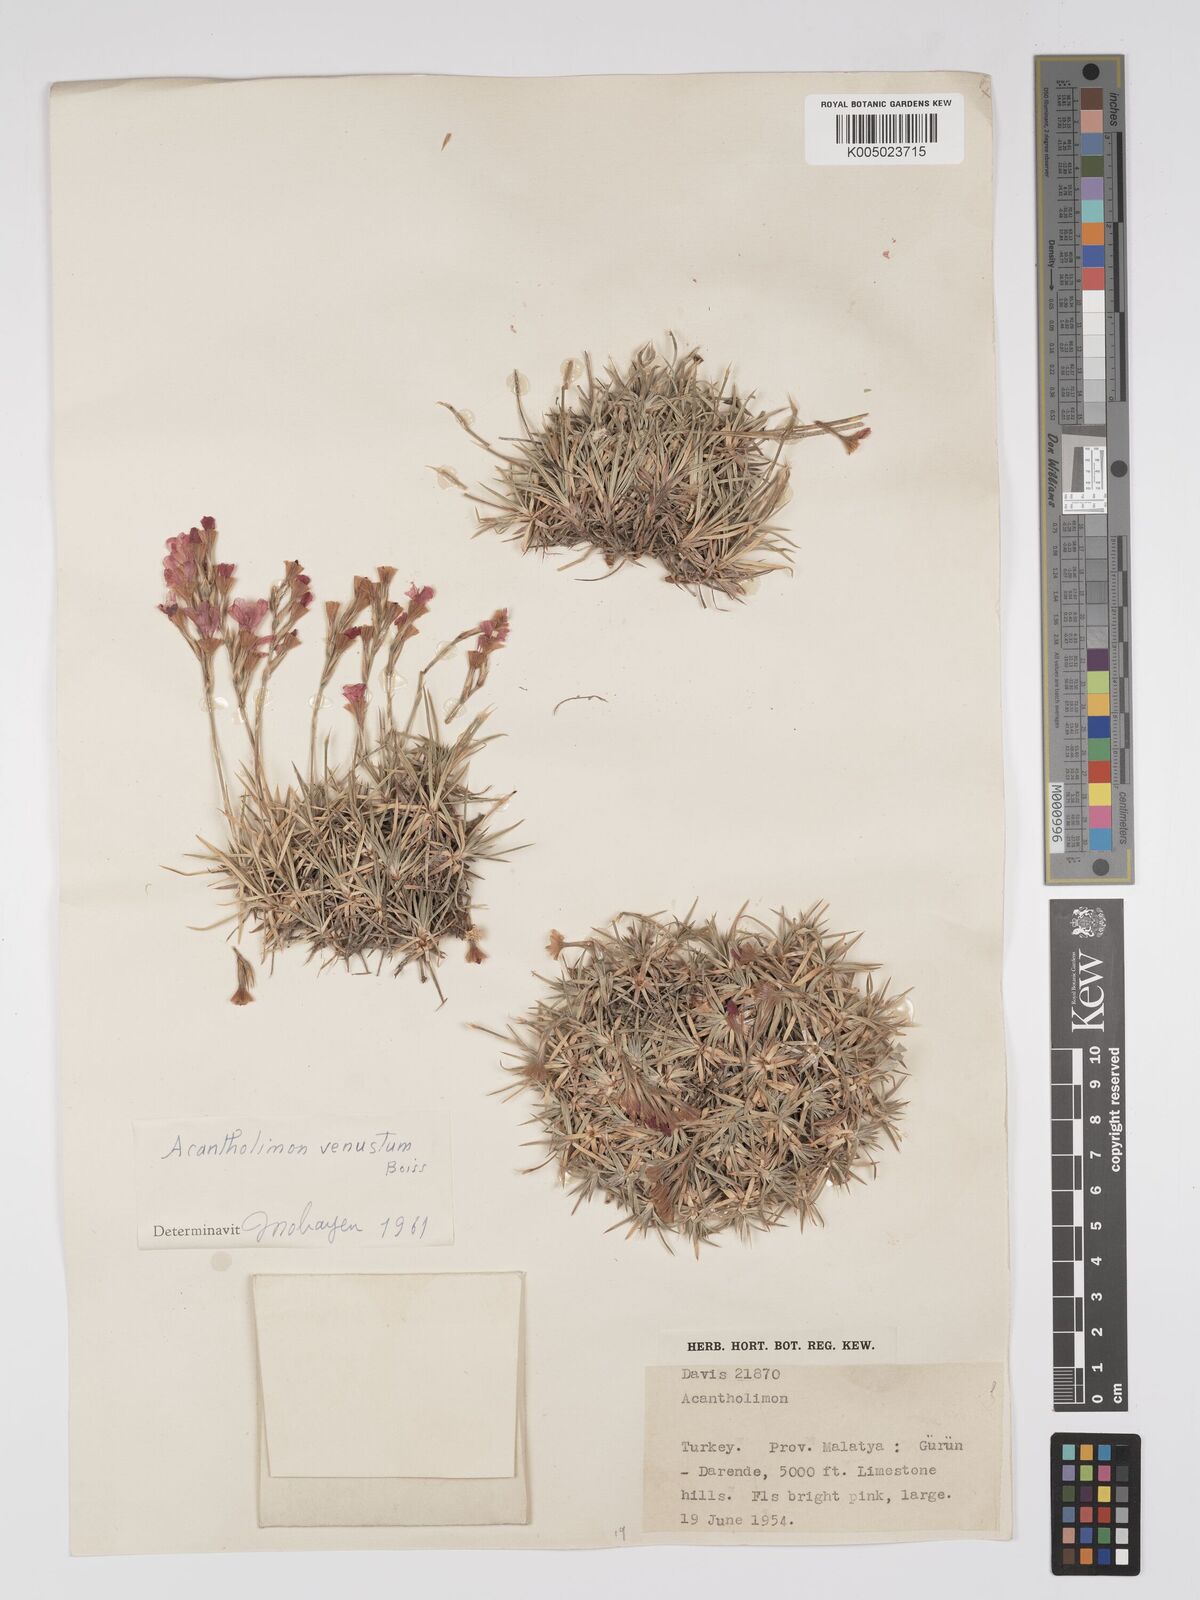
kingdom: Plantae
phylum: Tracheophyta
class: Magnoliopsida
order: Caryophyllales
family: Plumbaginaceae
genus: Acantholimon
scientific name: Acantholimon venustum
